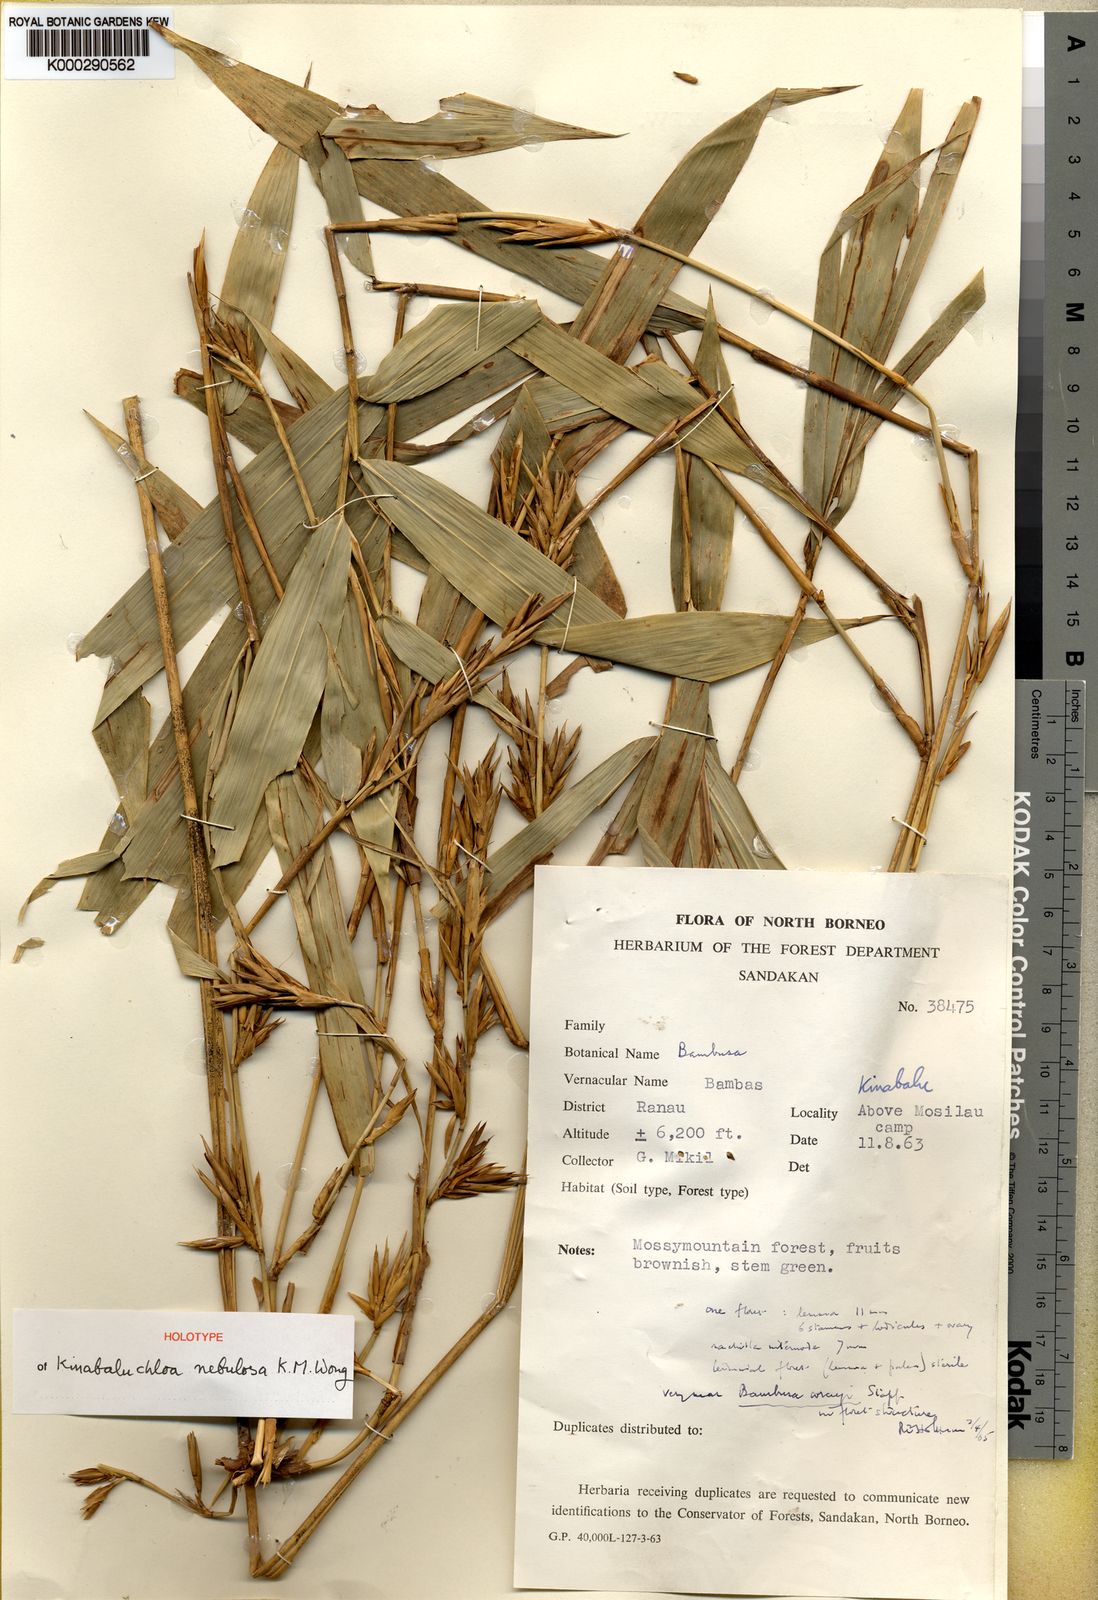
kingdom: Plantae
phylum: Tracheophyta
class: Liliopsida
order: Poales
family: Poaceae
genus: Kinabaluchloa
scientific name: Kinabaluchloa wrayi
